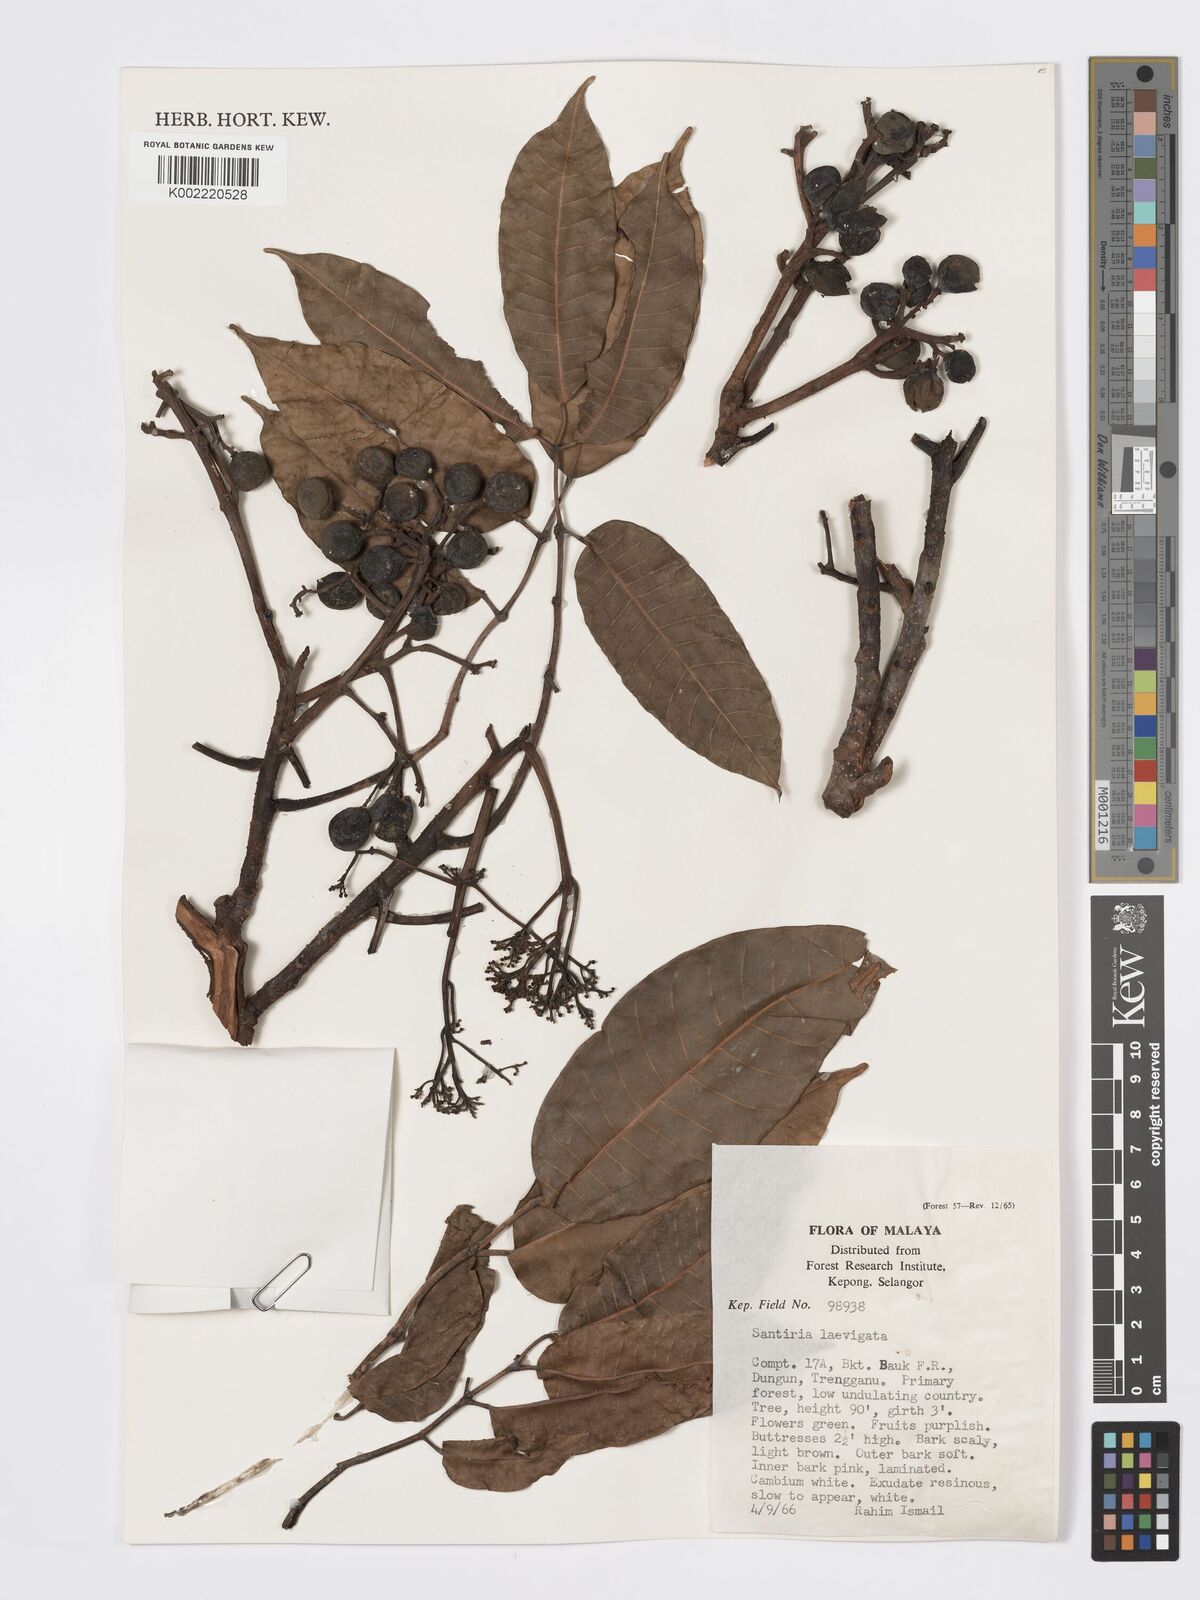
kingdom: Plantae
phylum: Tracheophyta
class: Magnoliopsida
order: Sapindales
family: Burseraceae
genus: Santiria
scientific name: Santiria laevigata
